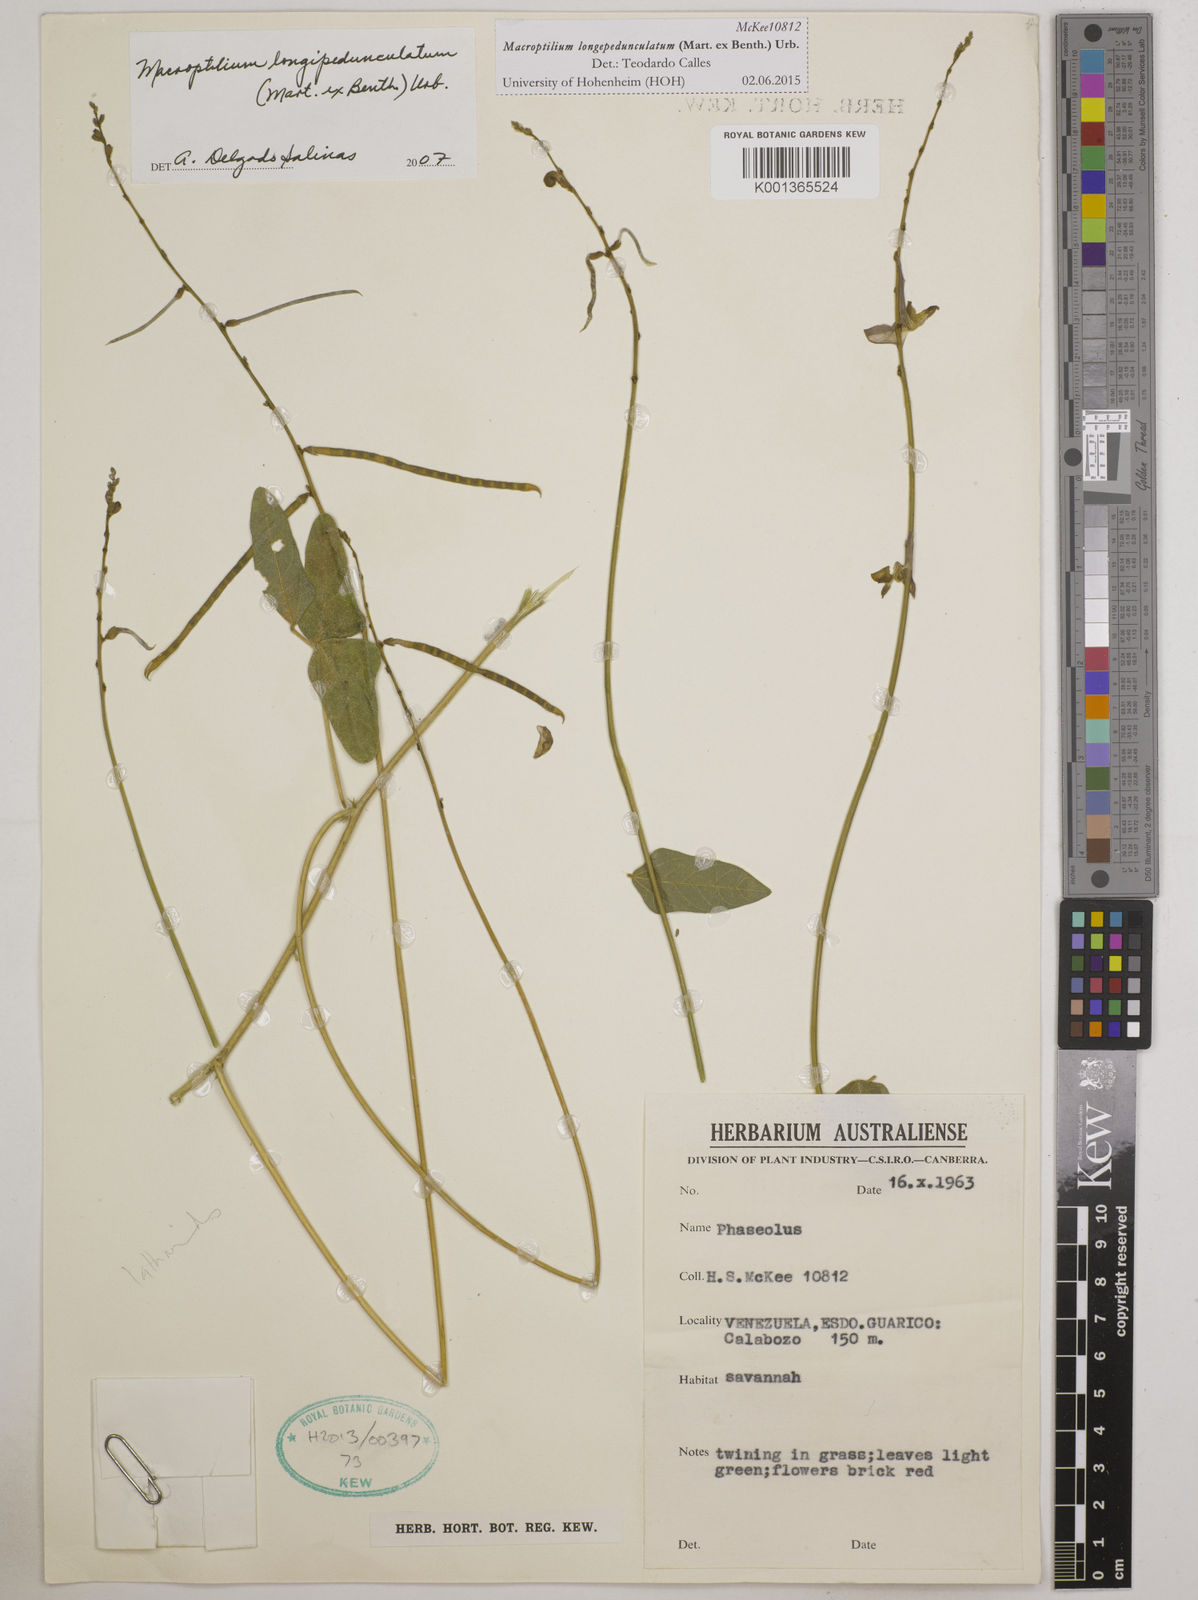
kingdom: Plantae
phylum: Tracheophyta
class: Magnoliopsida
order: Fabales
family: Fabaceae
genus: Macroptilium
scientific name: Macroptilium longepedunculatum
